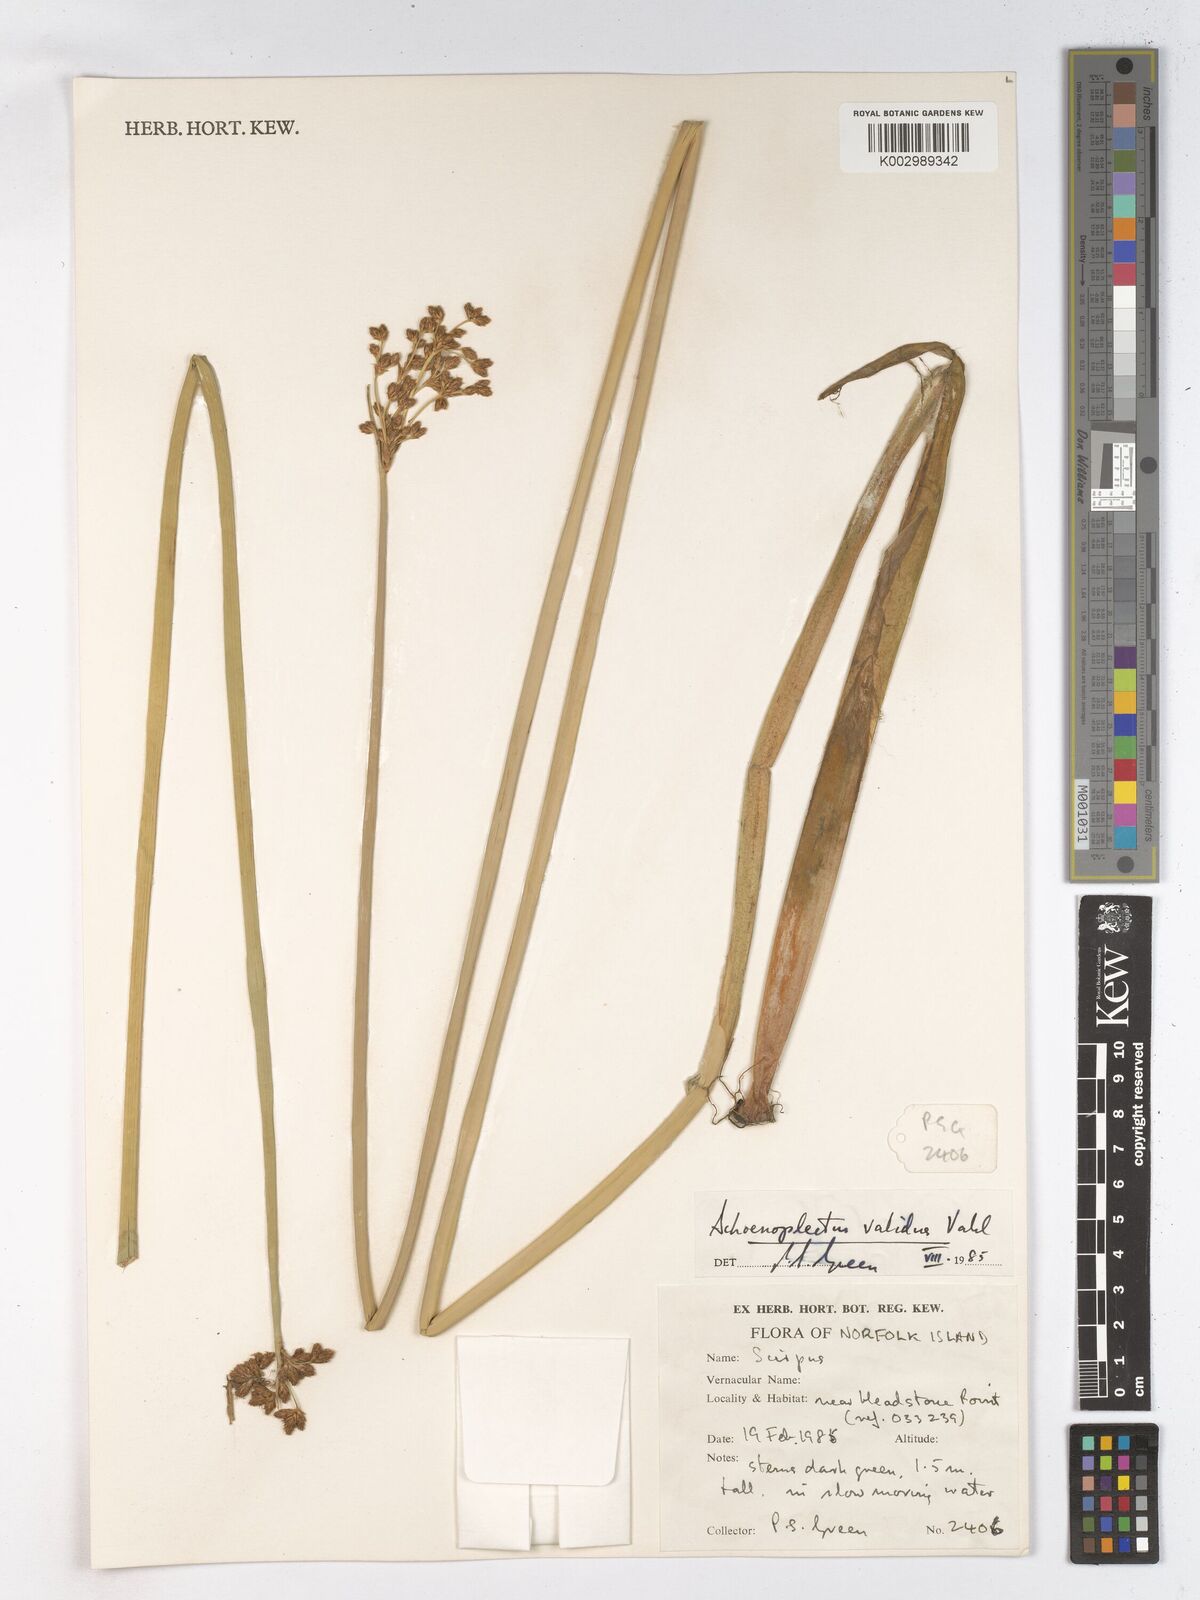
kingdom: Plantae
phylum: Tracheophyta
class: Liliopsida
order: Poales
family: Cyperaceae
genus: Schoenoplectus
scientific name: Schoenoplectus tabernaemontani
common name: Grey club-rush
